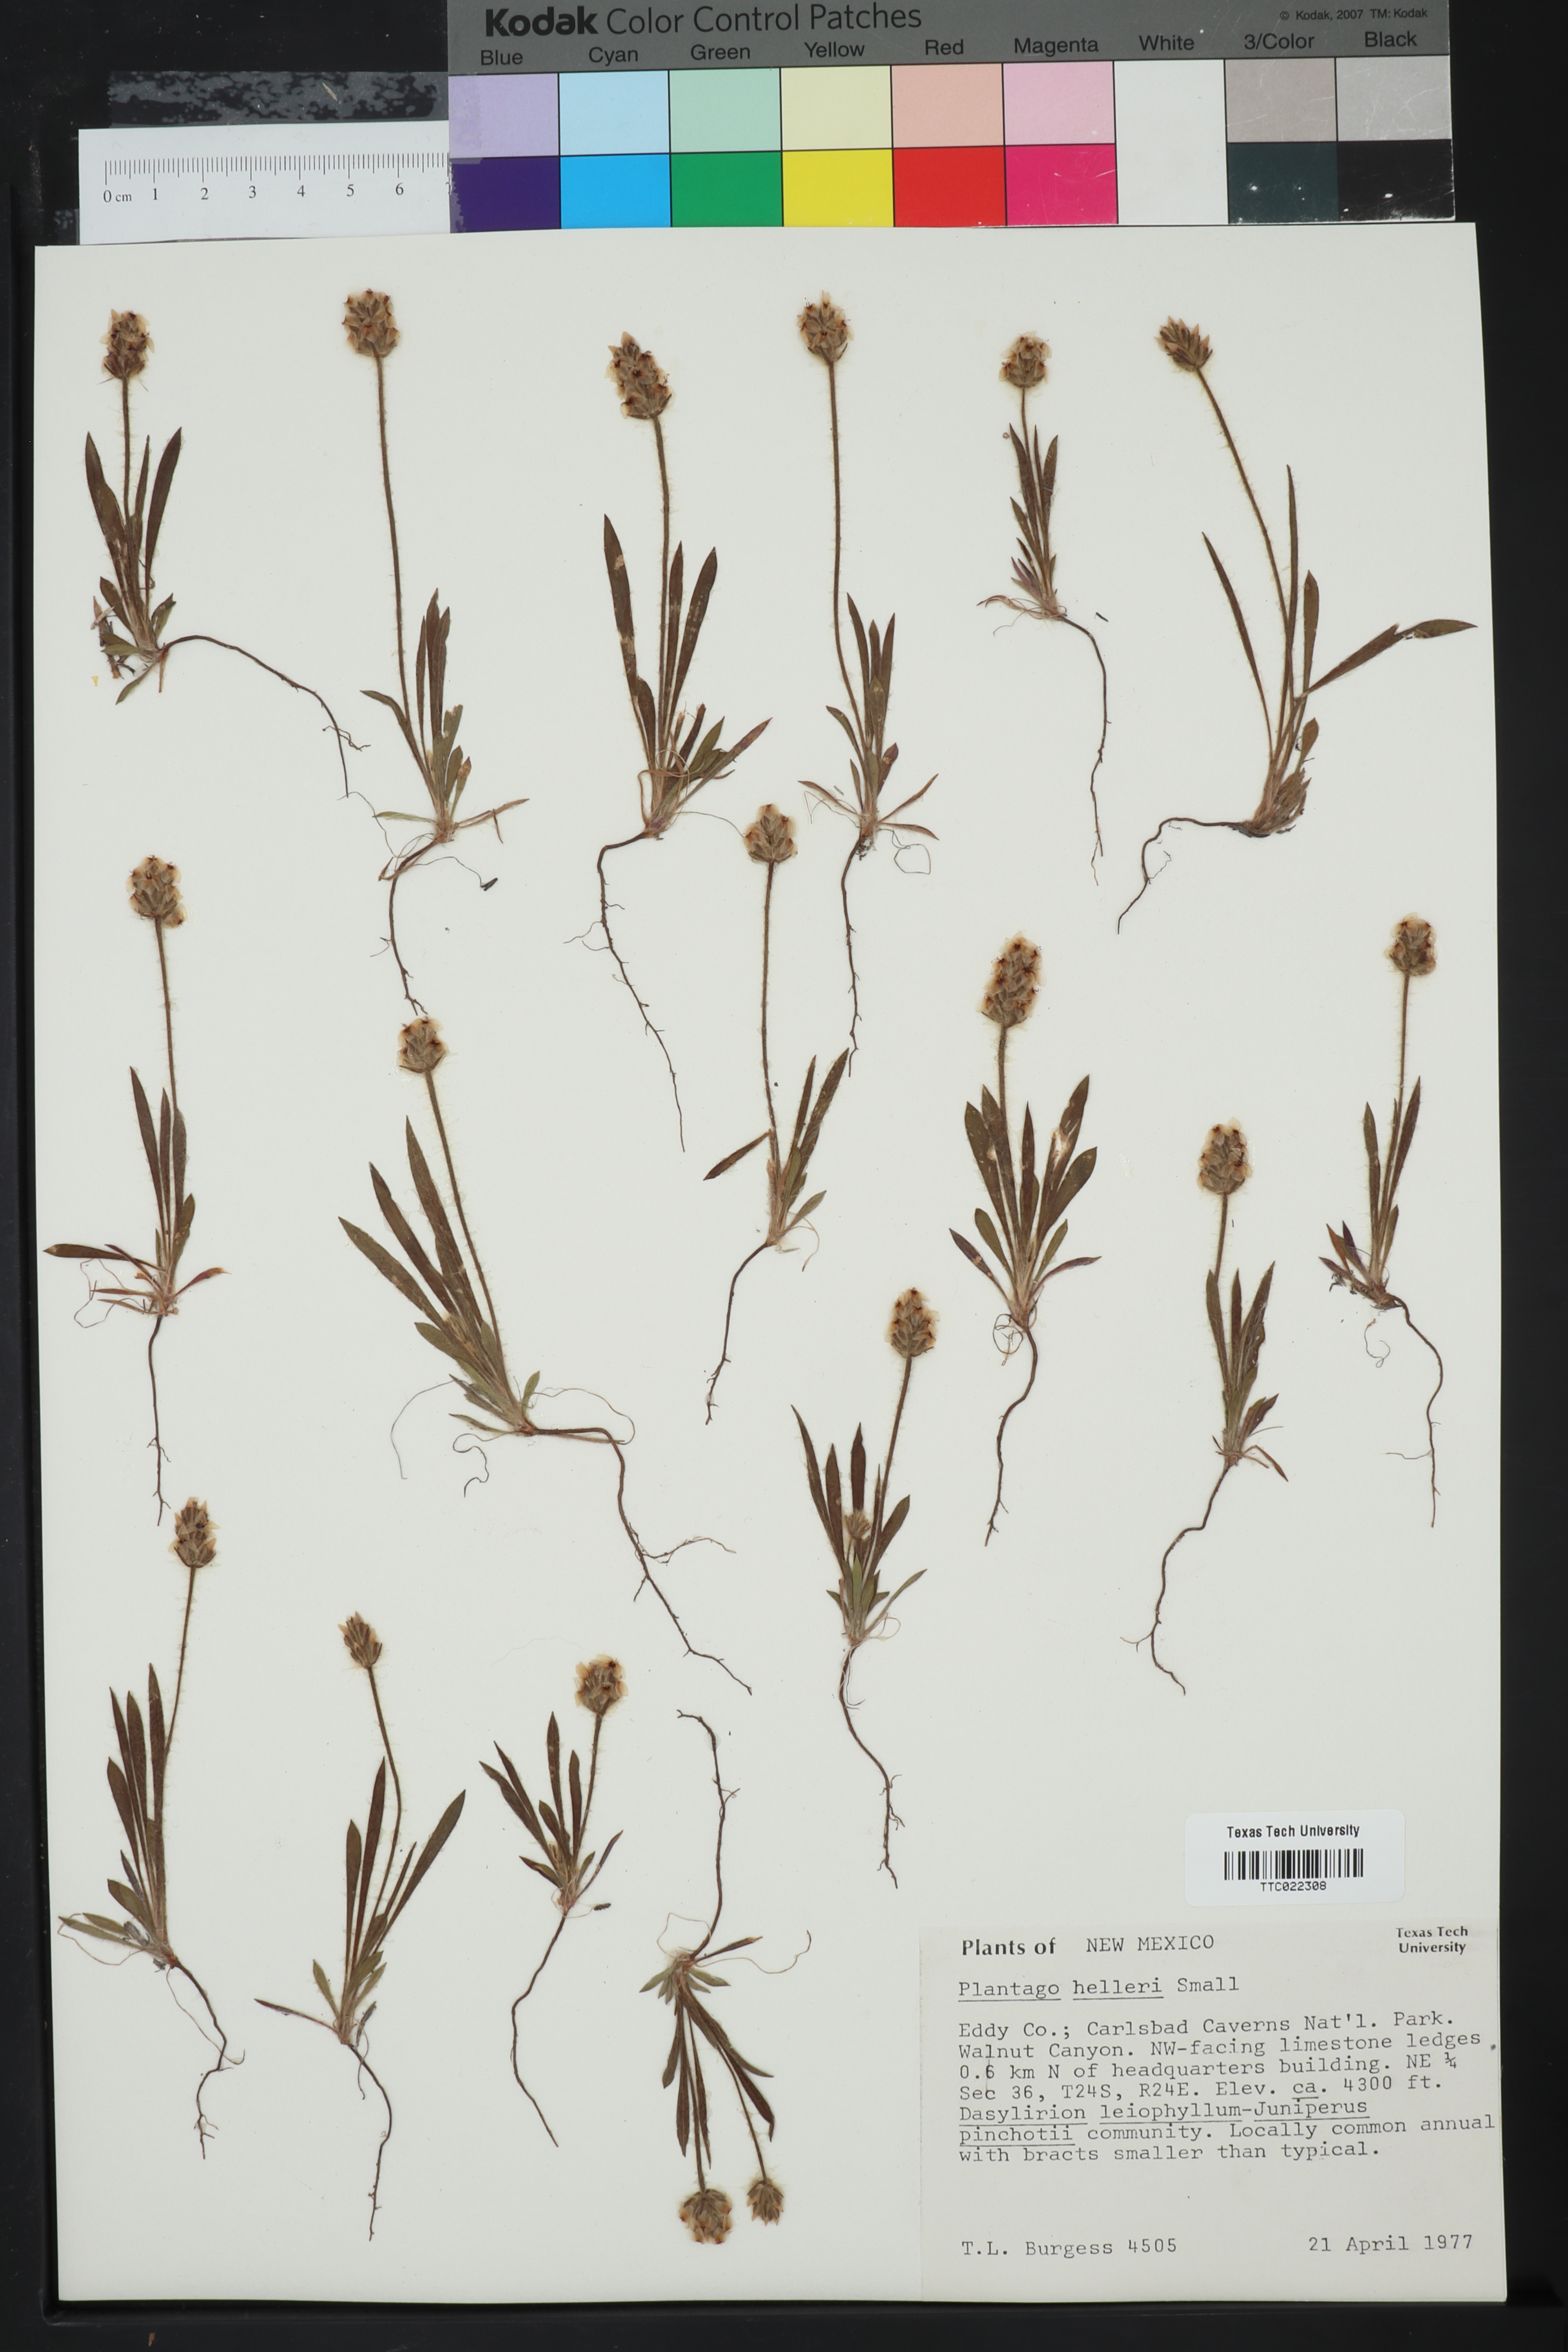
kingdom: Plantae
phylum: Tracheophyta
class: Magnoliopsida
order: Lamiales
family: Plantaginaceae
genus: Plantago
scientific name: Plantago helleri
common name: Heller's plantain
